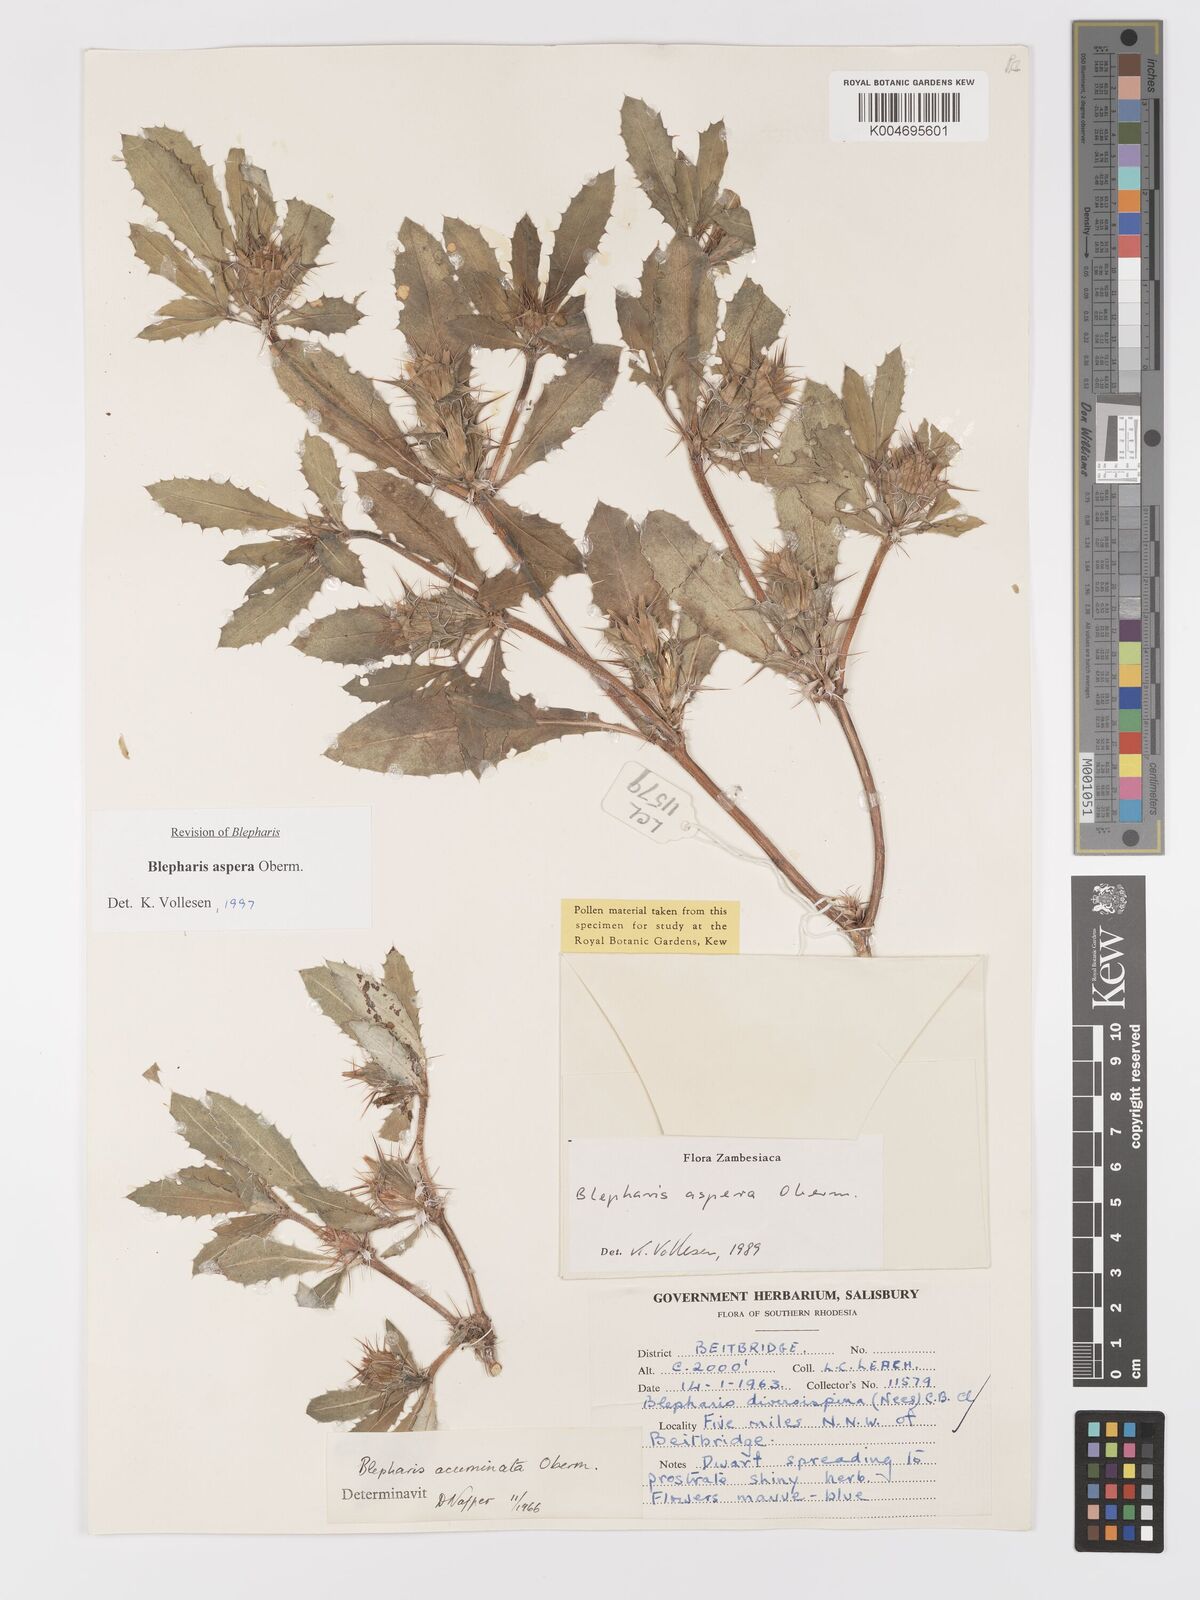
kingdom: Plantae
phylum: Tracheophyta
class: Magnoliopsida
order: Lamiales
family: Acanthaceae
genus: Blepharis
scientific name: Blepharis aspera
